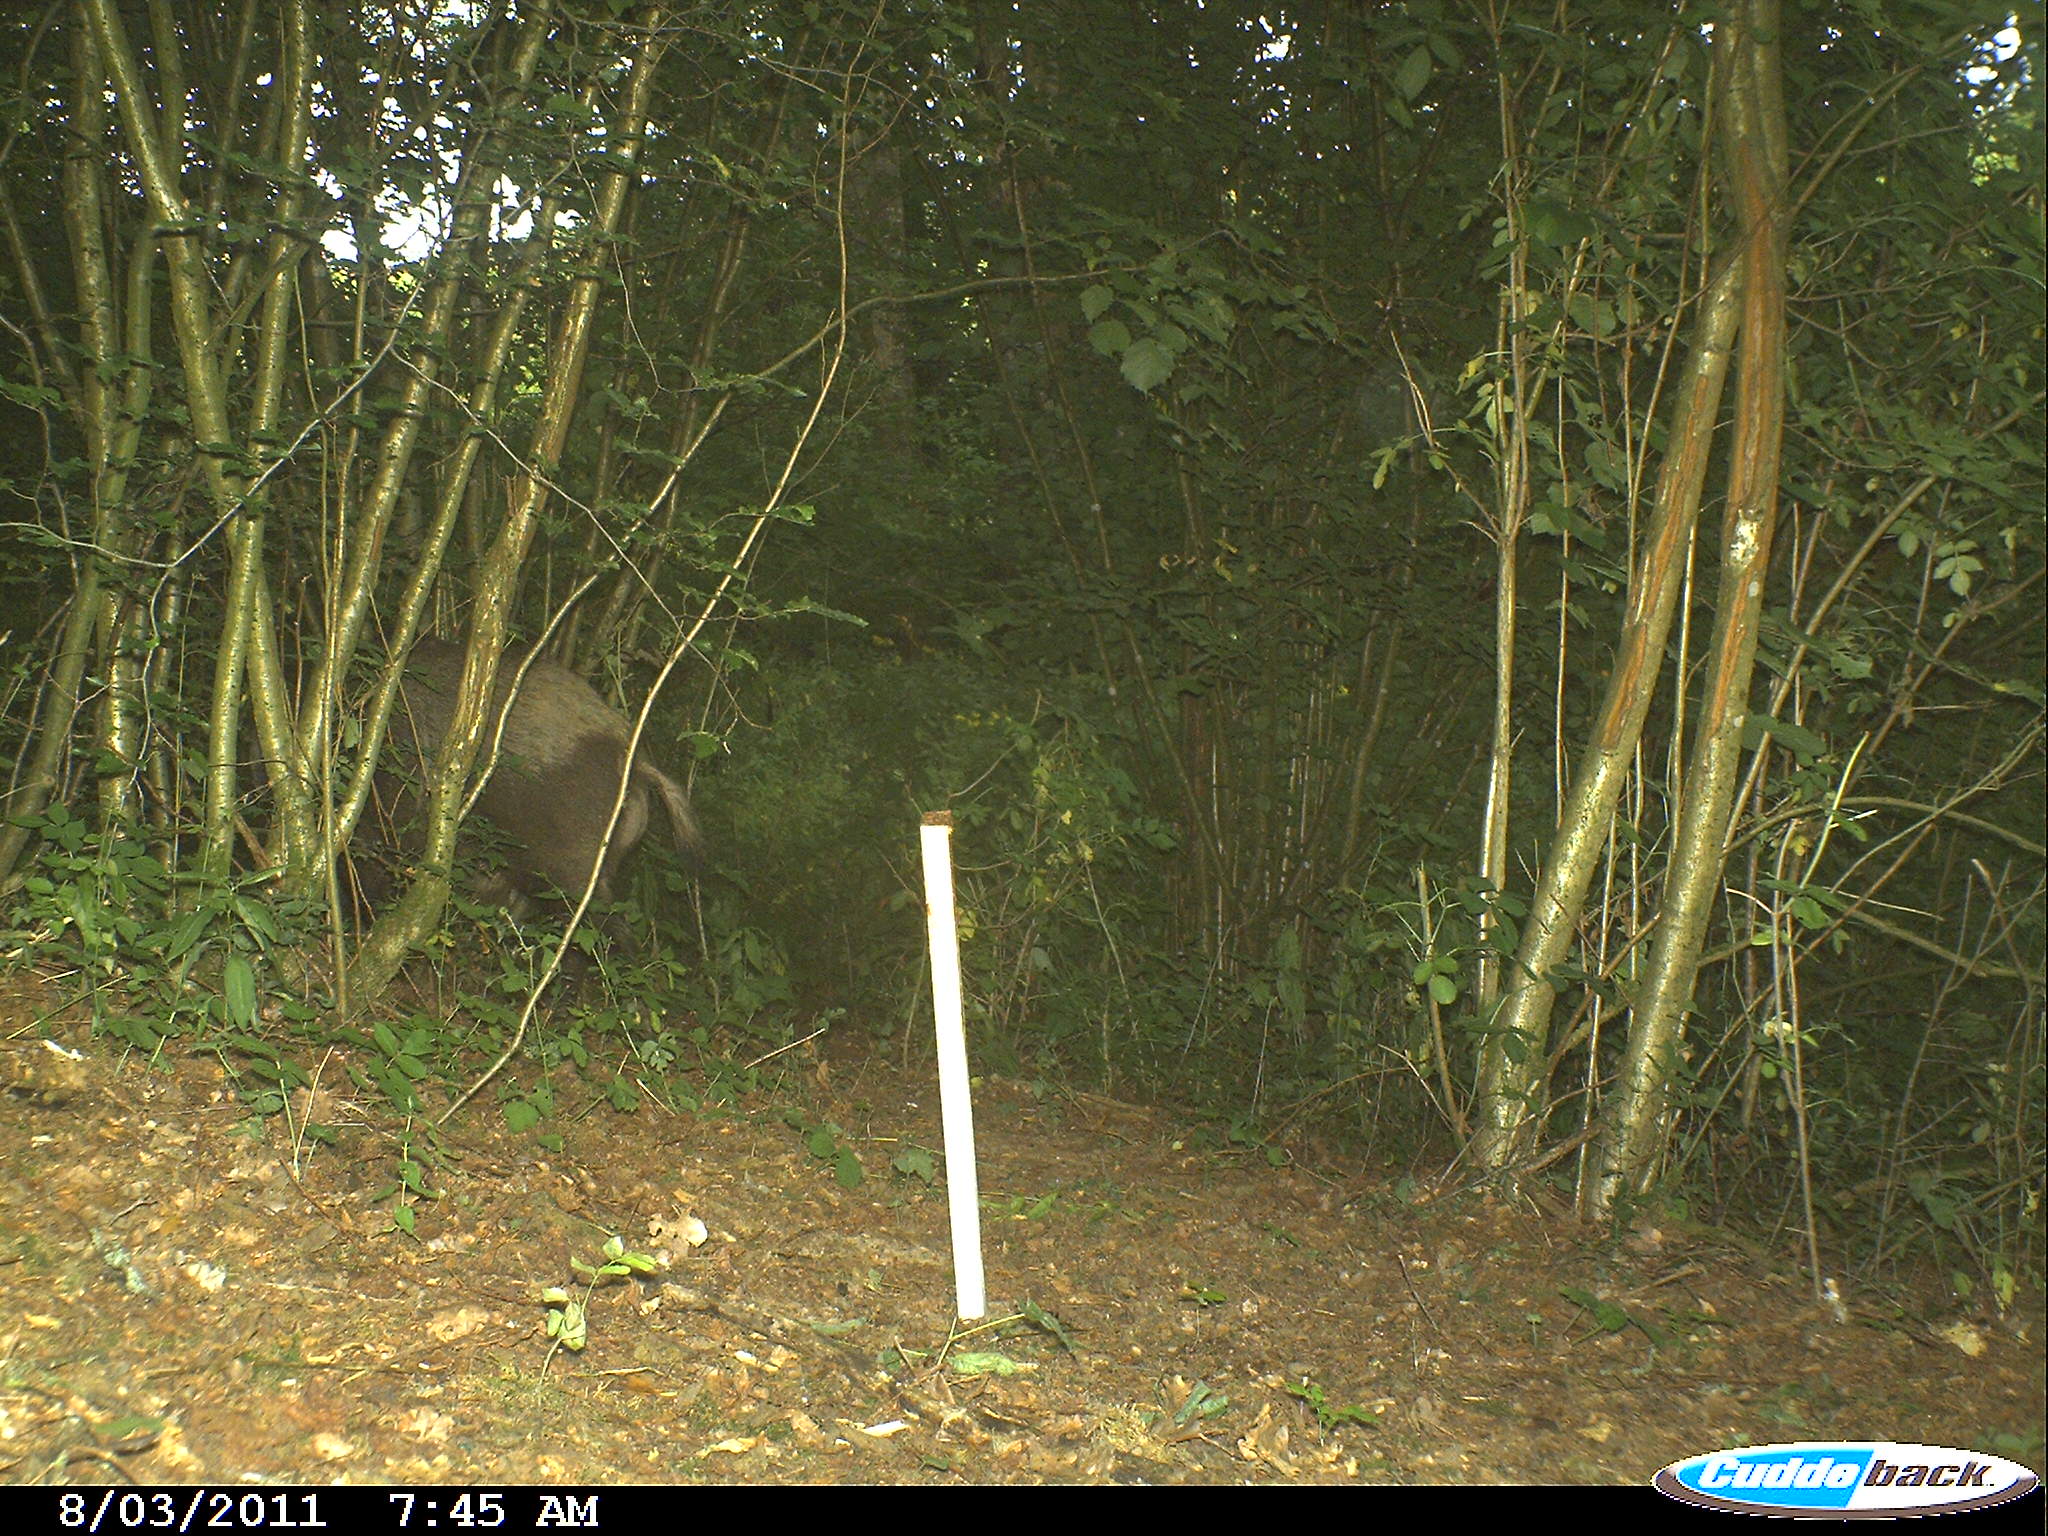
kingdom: Animalia
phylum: Chordata
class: Mammalia
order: Artiodactyla
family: Suidae
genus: Sus
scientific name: Sus scrofa
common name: Wild boar
